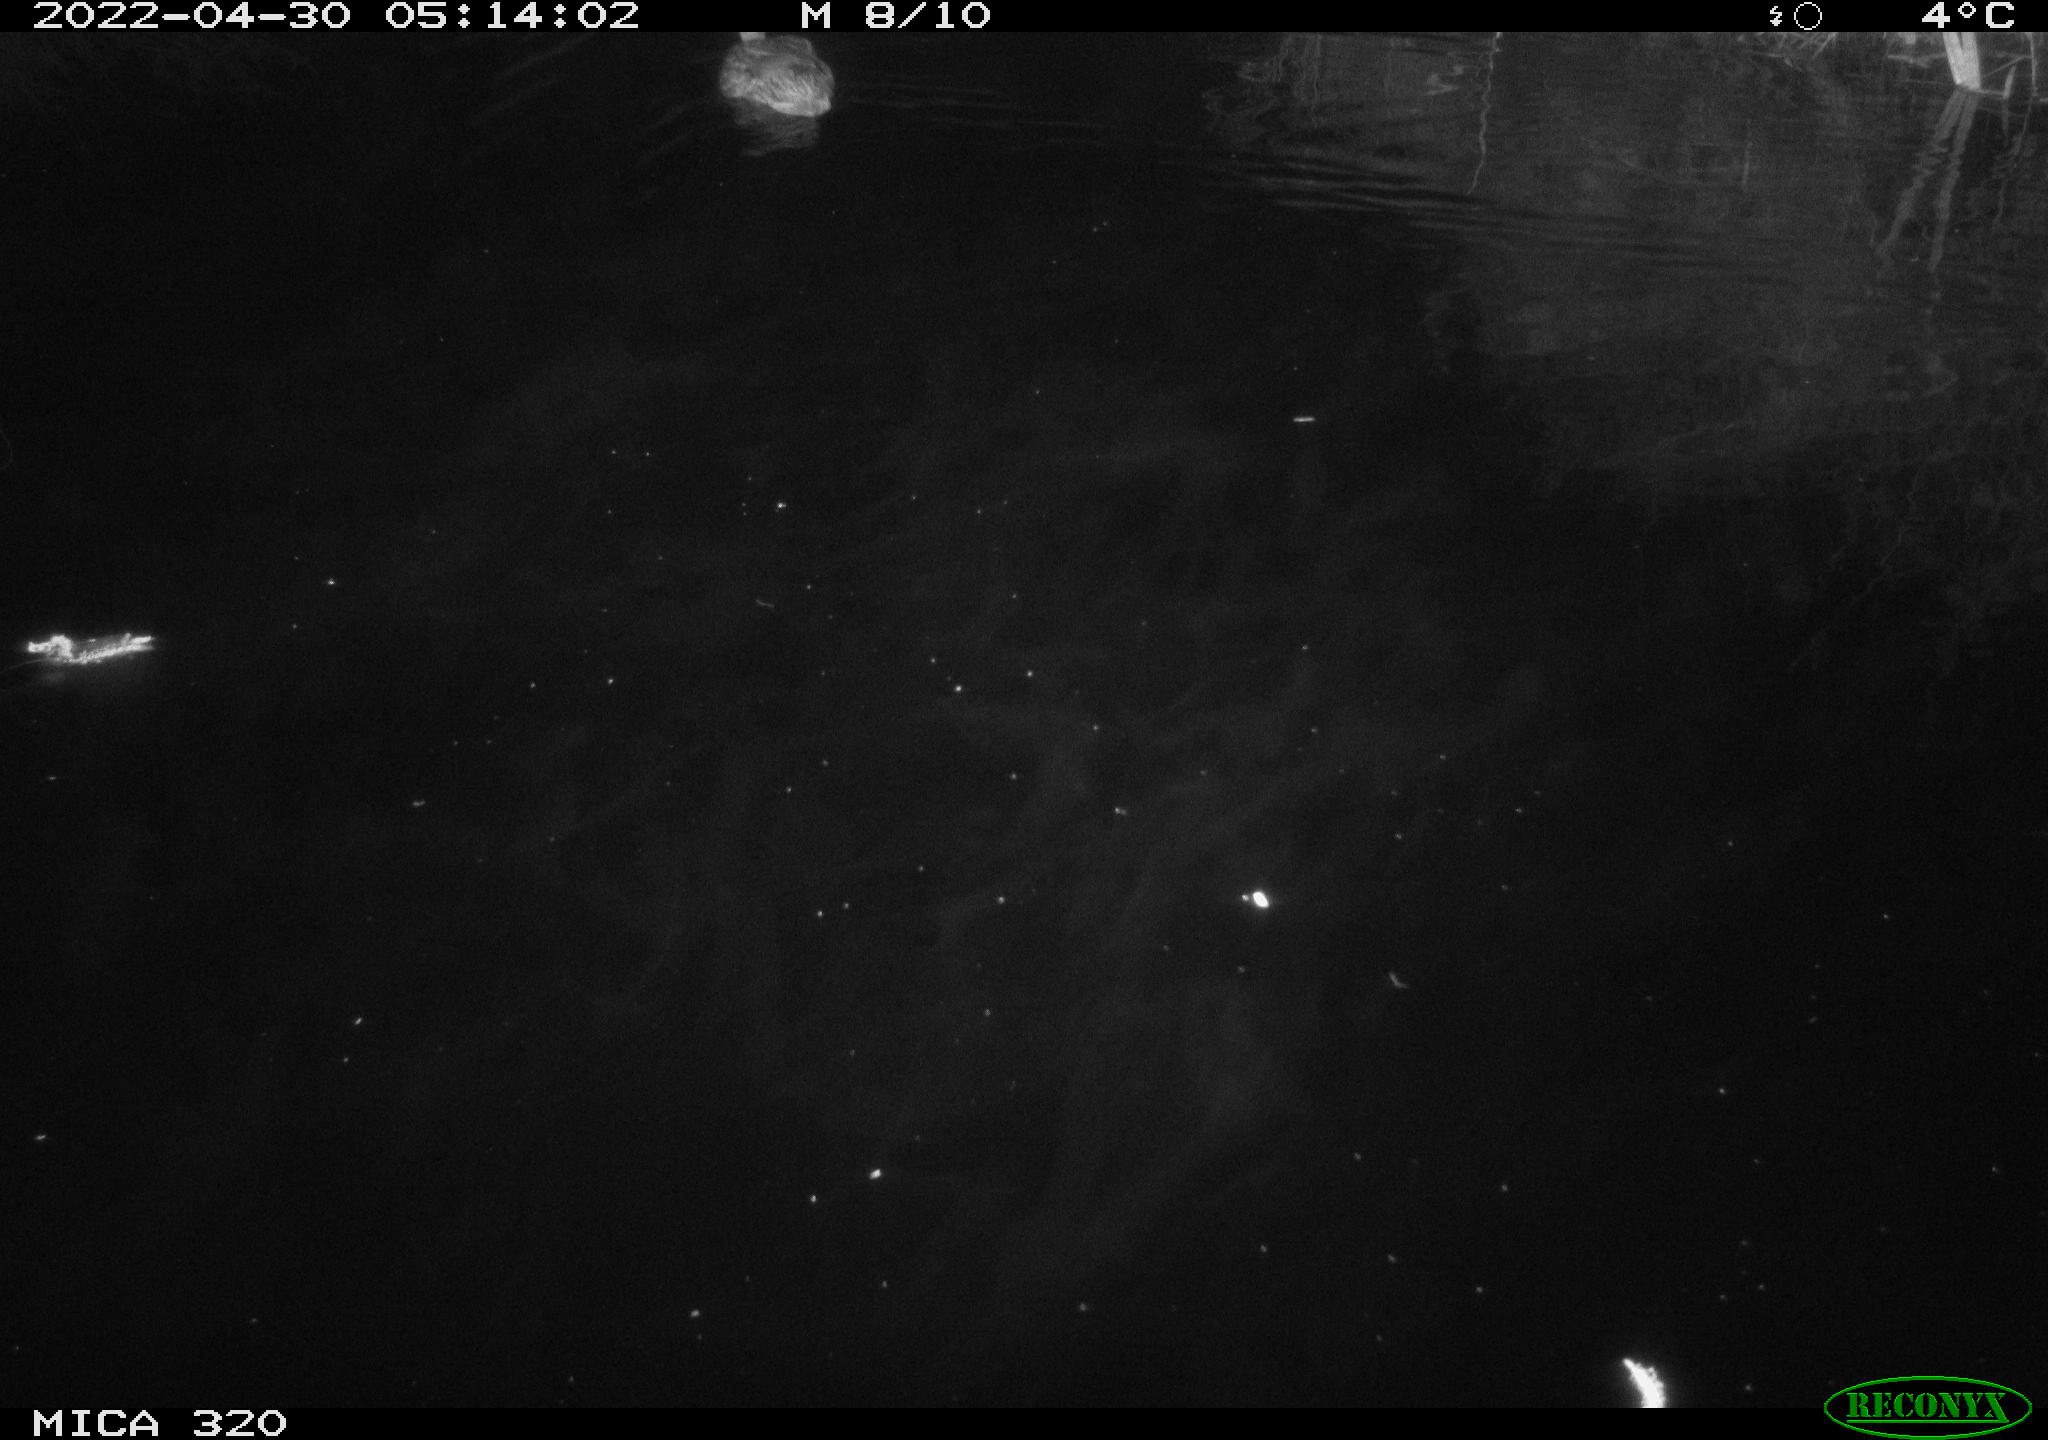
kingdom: Animalia
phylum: Chordata
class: Aves
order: Anseriformes
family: Anatidae
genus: Anas
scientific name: Anas platyrhynchos
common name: Mallard
